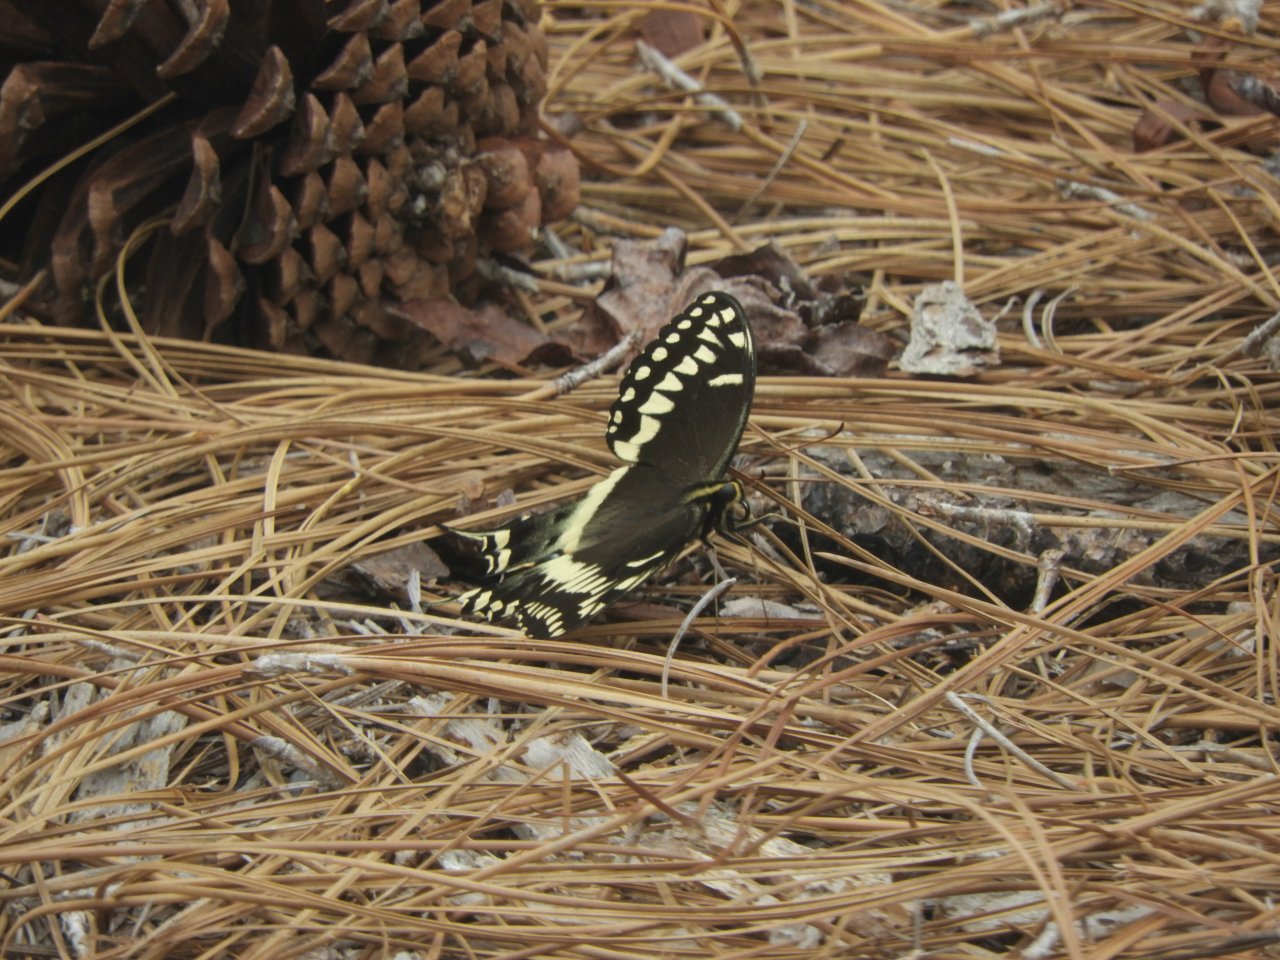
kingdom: Animalia
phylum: Arthropoda
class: Insecta
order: Lepidoptera
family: Papilionidae
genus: Pterourus
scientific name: Pterourus palamedes
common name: Palamedes Swallowtail
